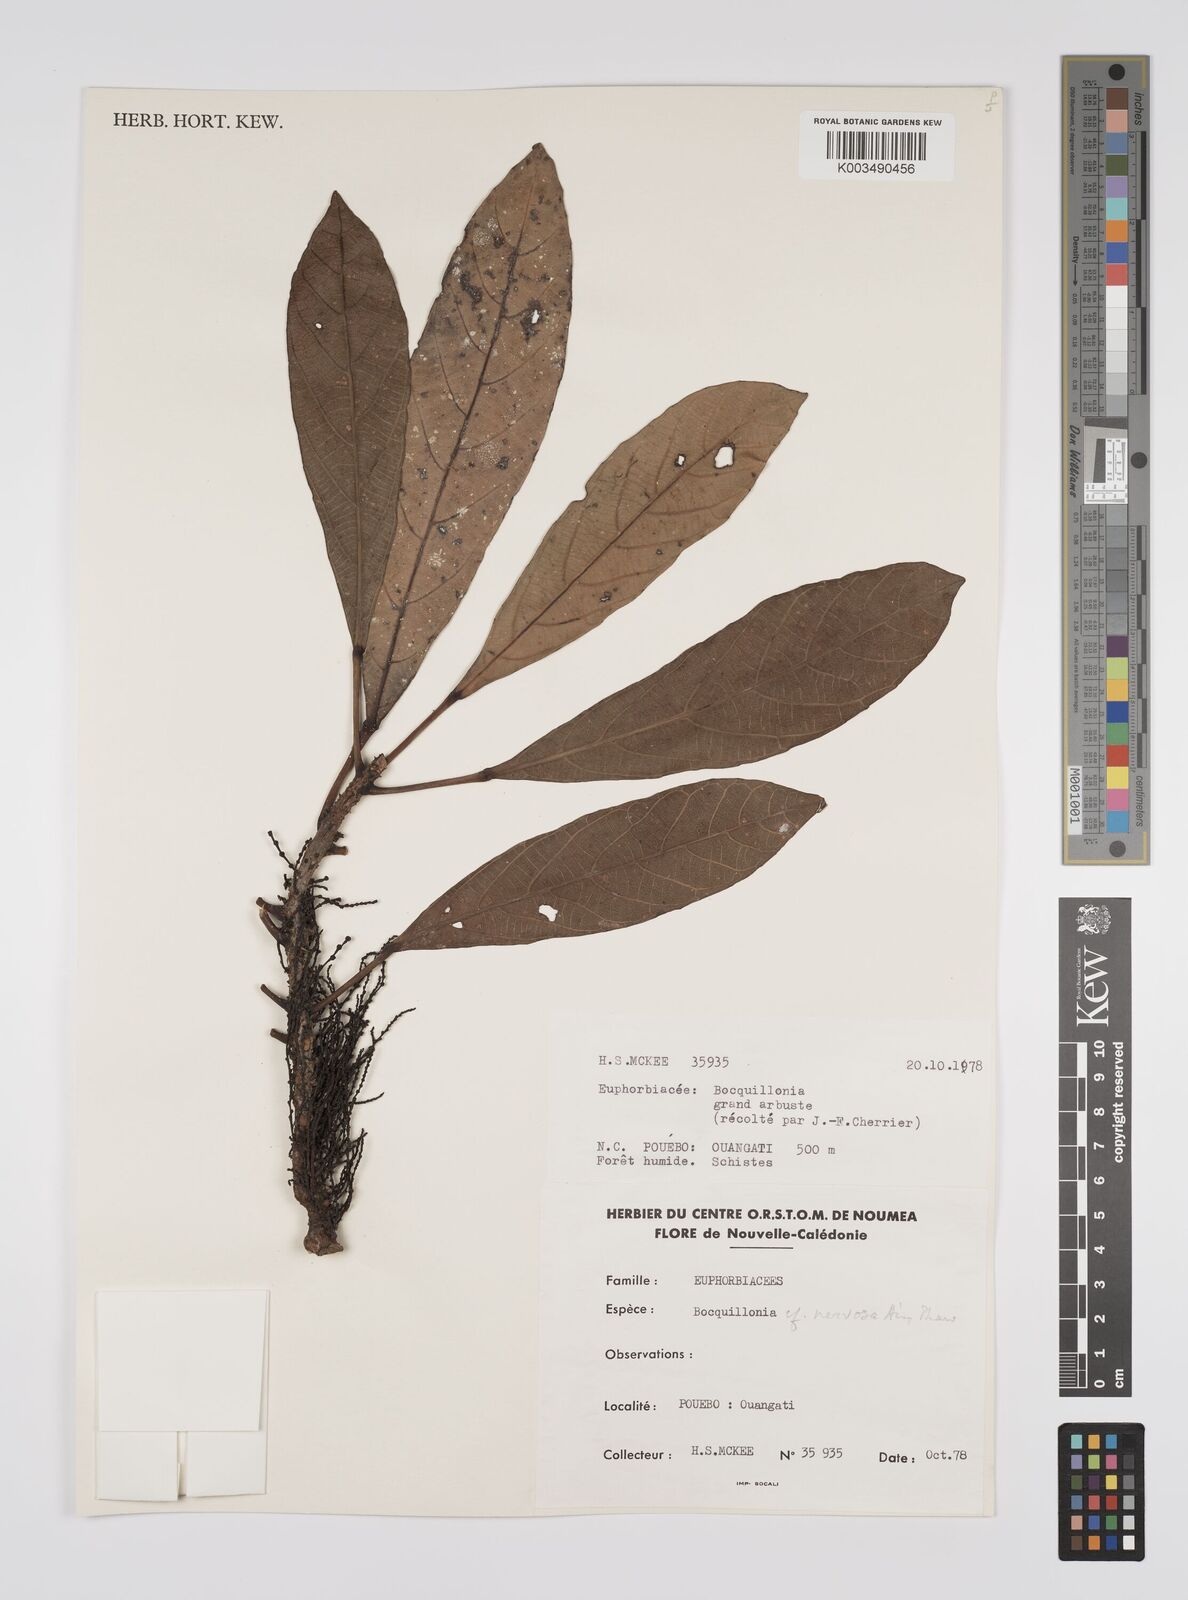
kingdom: Plantae
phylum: Tracheophyta
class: Magnoliopsida
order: Malpighiales
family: Euphorbiaceae
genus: Bocquillonia
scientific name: Bocquillonia nervosa
